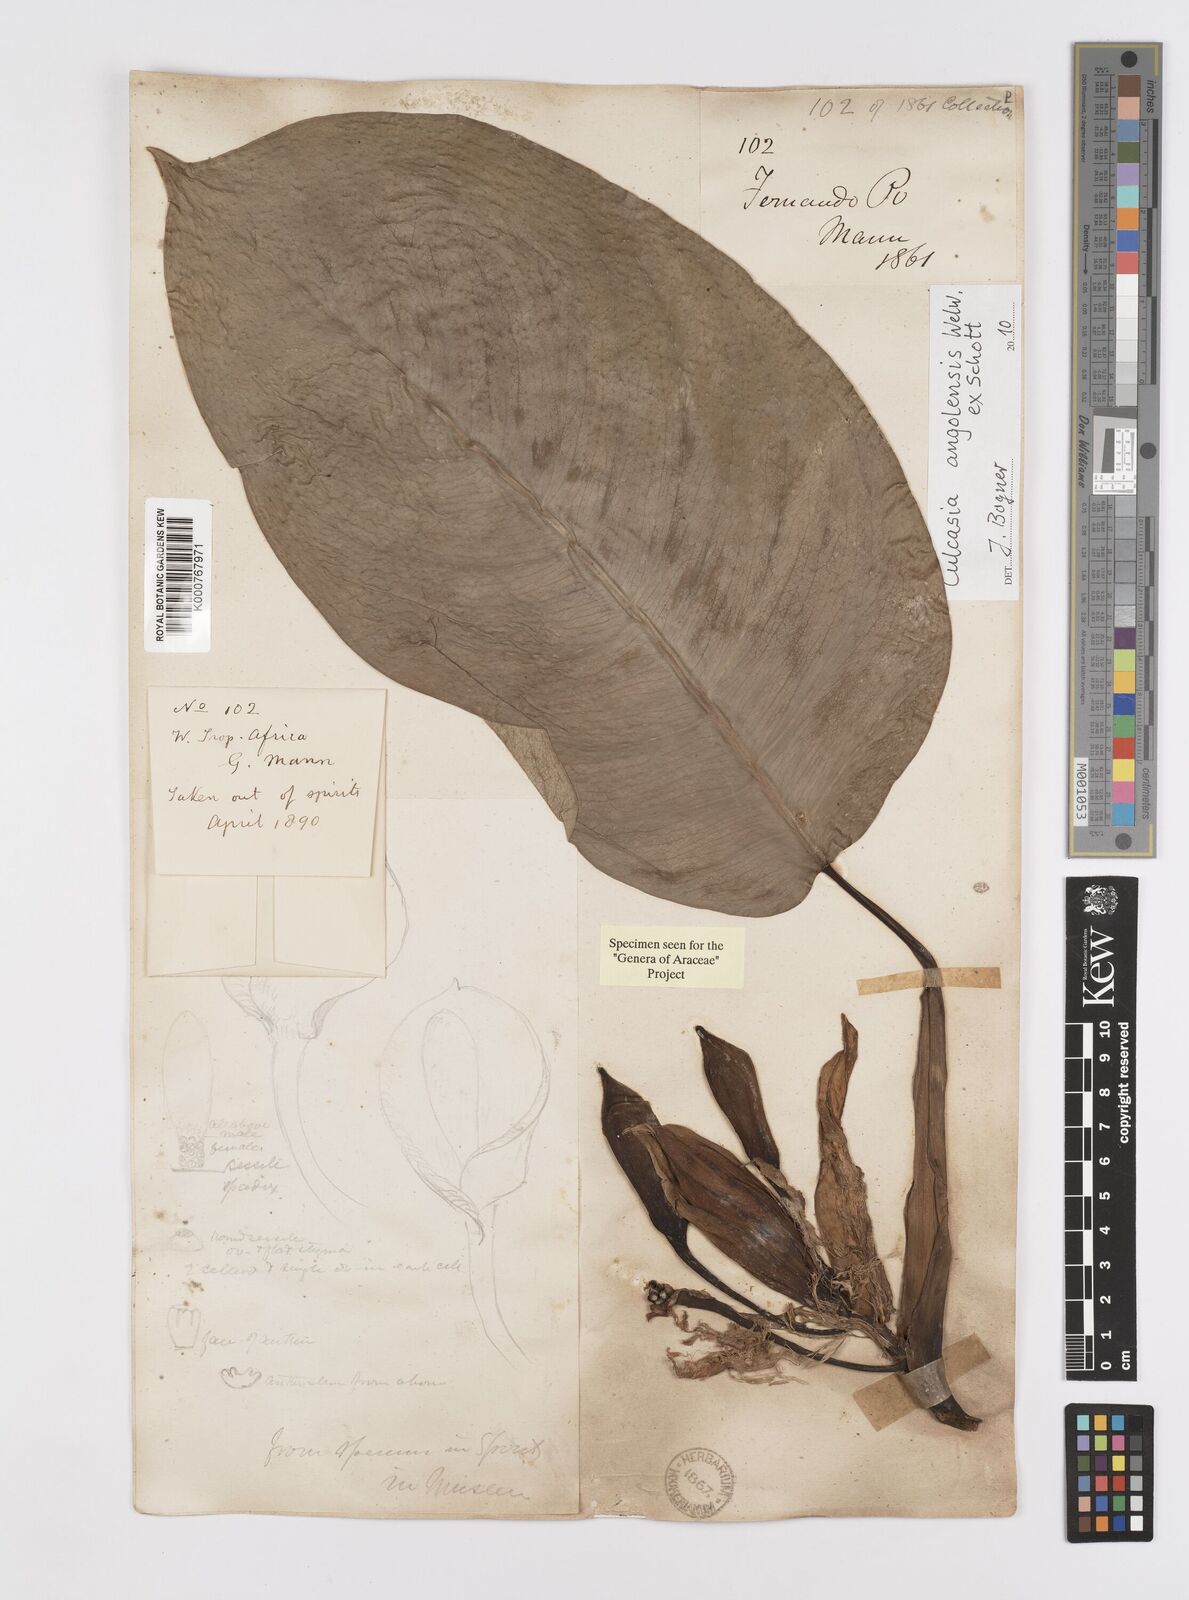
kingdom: Plantae
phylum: Tracheophyta
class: Liliopsida
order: Alismatales
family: Araceae
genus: Culcasia
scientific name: Culcasia angolensis
